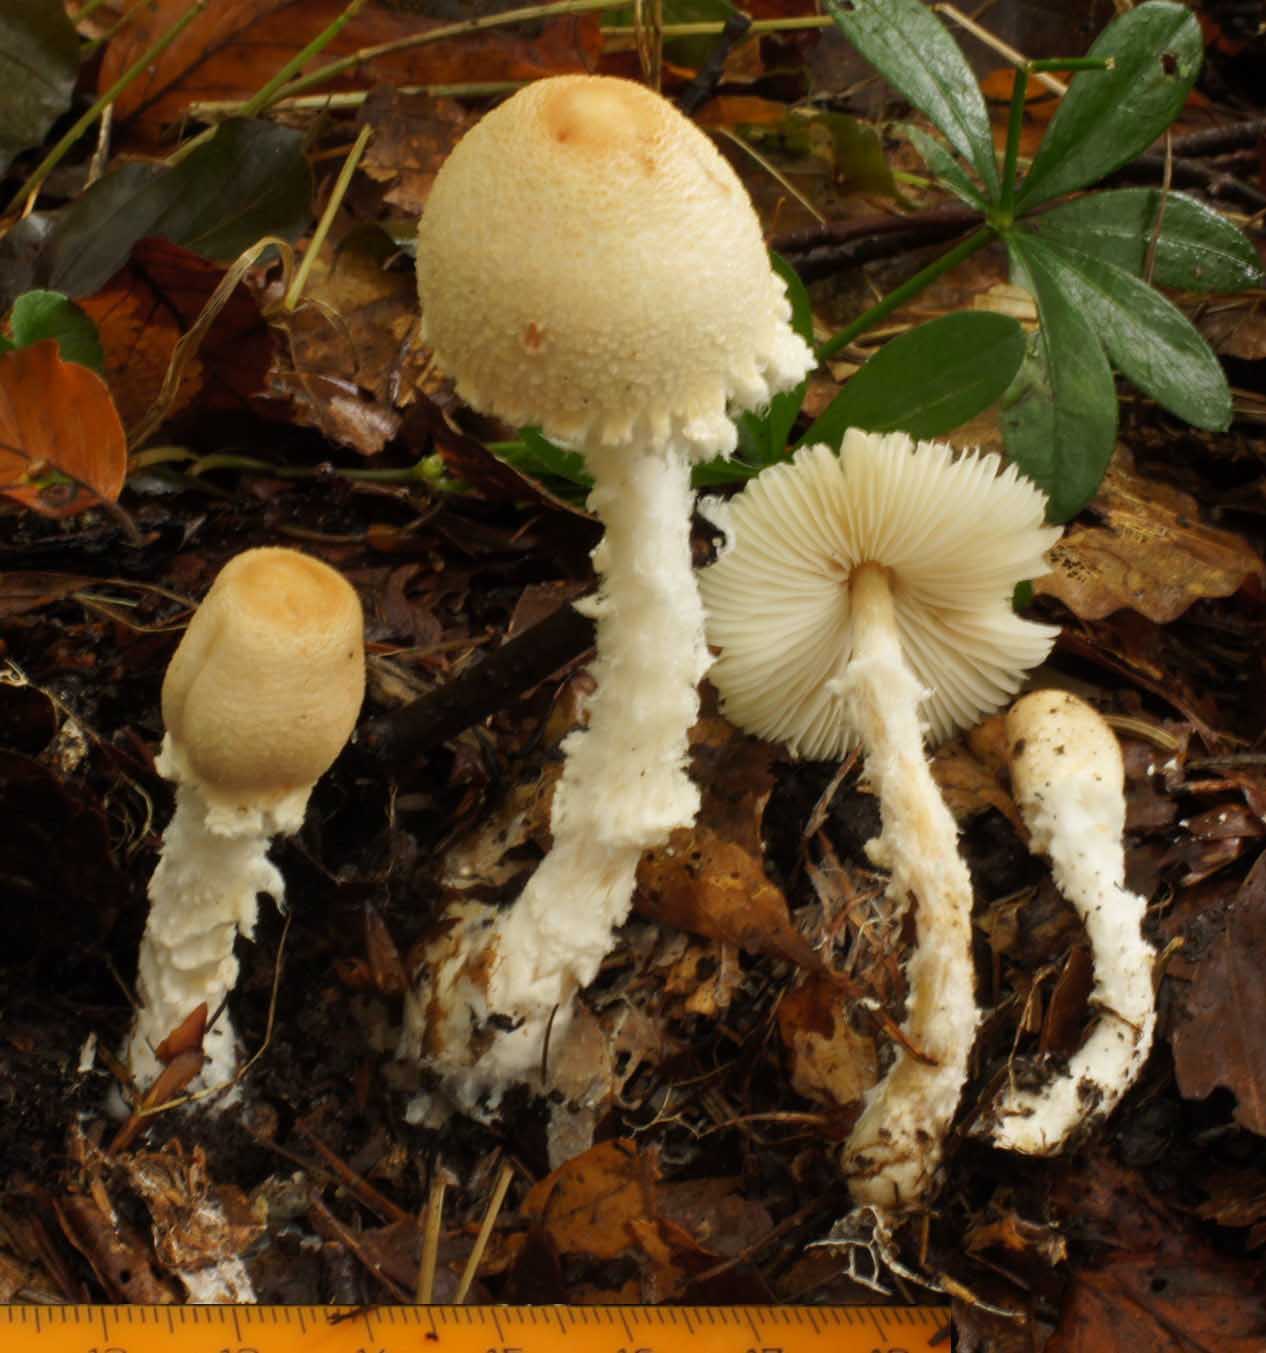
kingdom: Fungi
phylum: Basidiomycota
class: Agaricomycetes
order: Agaricales
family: Agaricaceae
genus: Lepiota
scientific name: Lepiota clypeolaria
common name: flosset parasolhat
